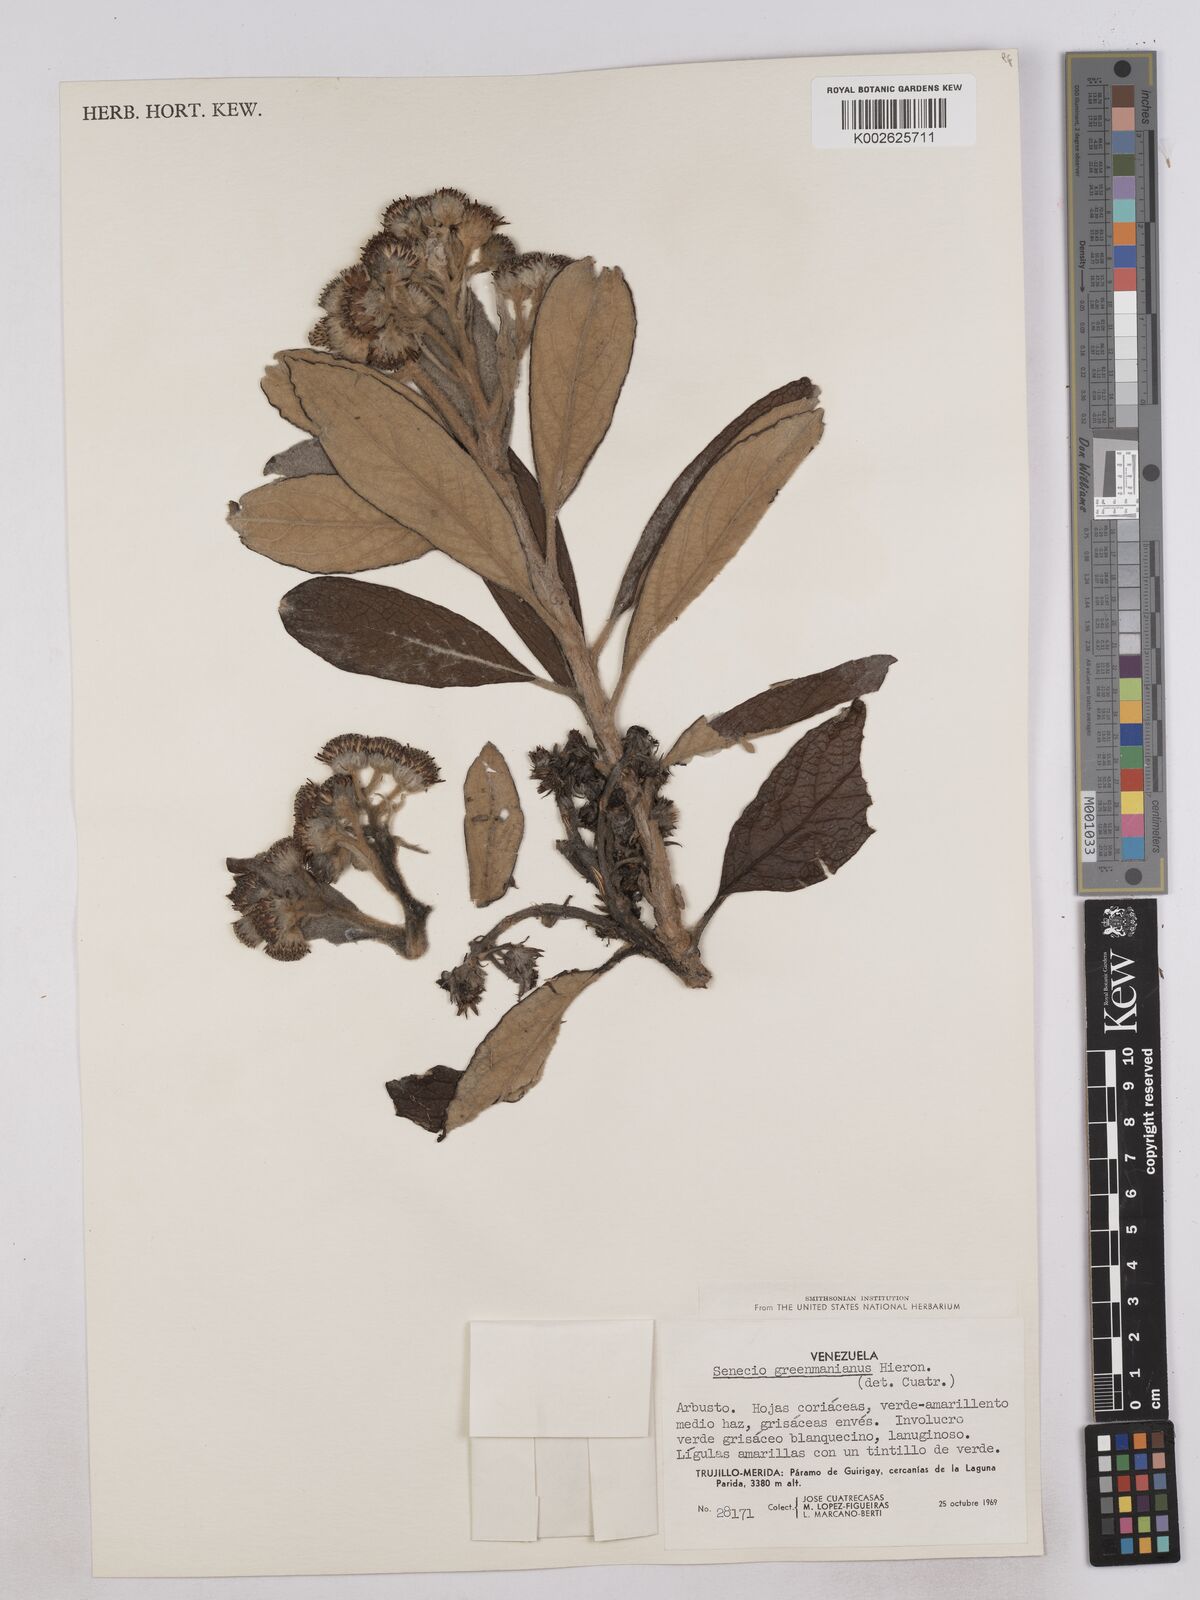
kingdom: Plantae
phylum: Tracheophyta
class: Magnoliopsida
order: Asterales
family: Asteraceae
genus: Monticalia
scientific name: Monticalia greenmaniana
